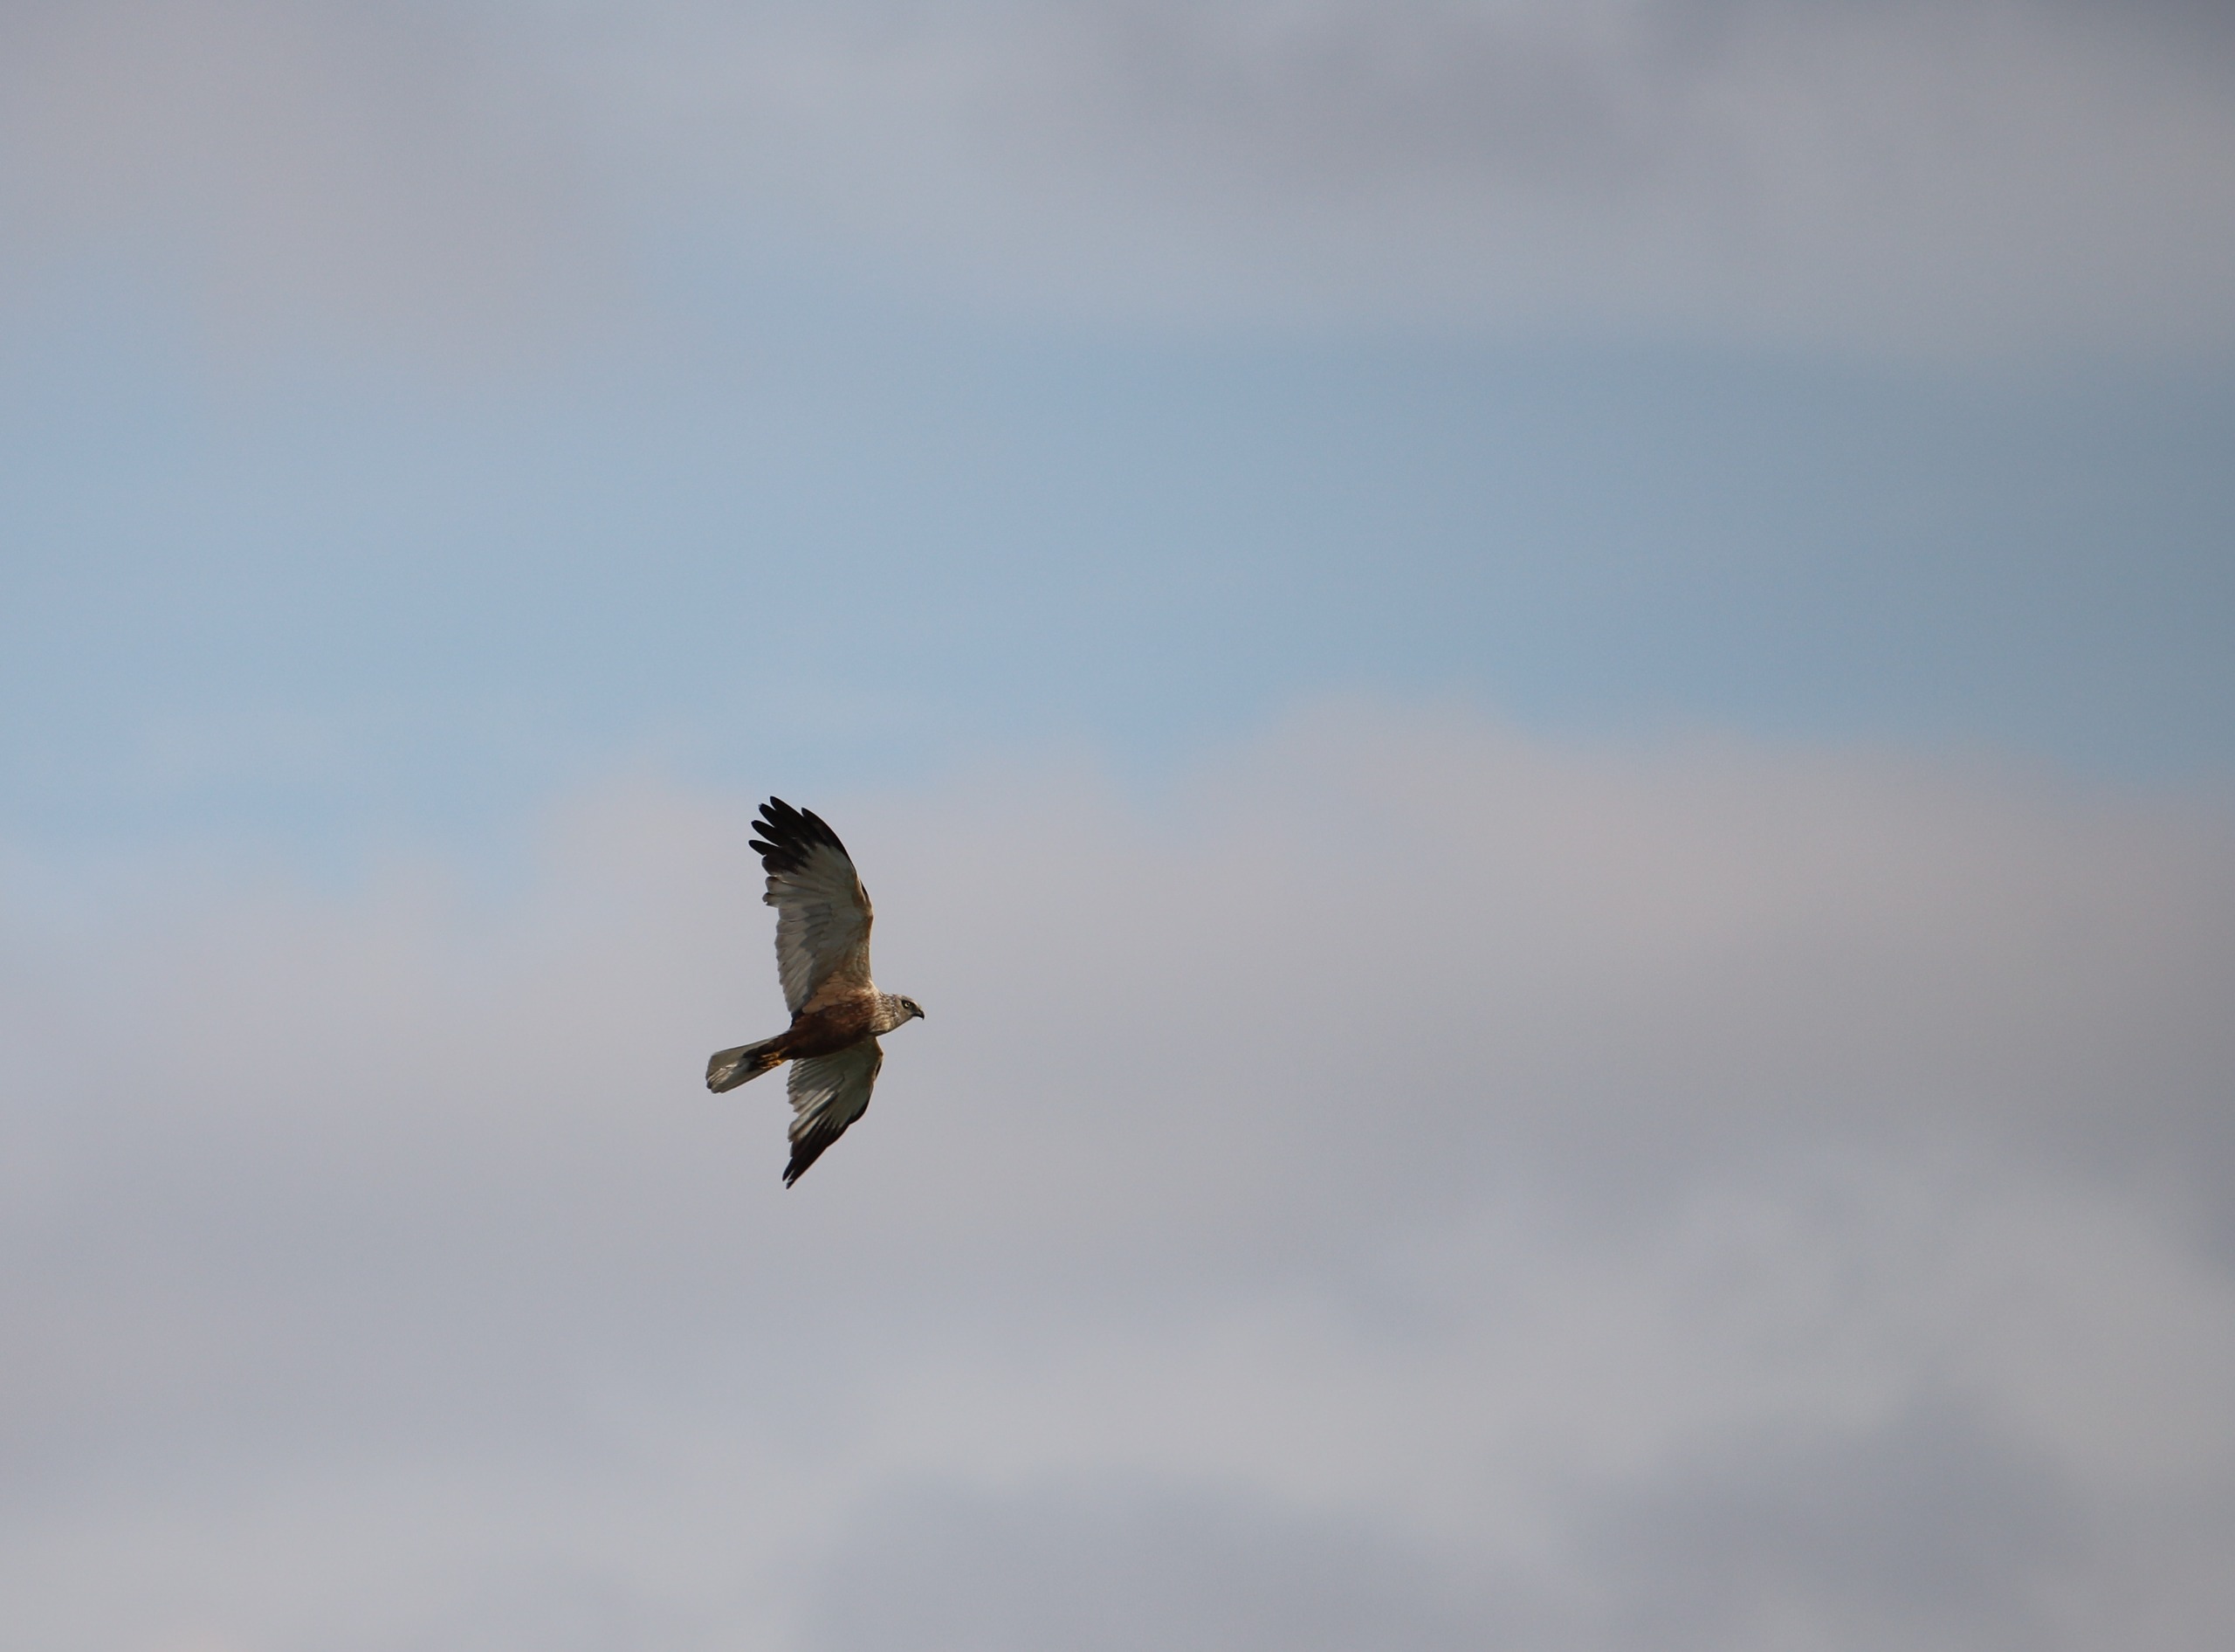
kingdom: Animalia
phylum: Chordata
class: Aves
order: Accipitriformes
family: Accipitridae
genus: Circus
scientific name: Circus aeruginosus
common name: Rørhøg
